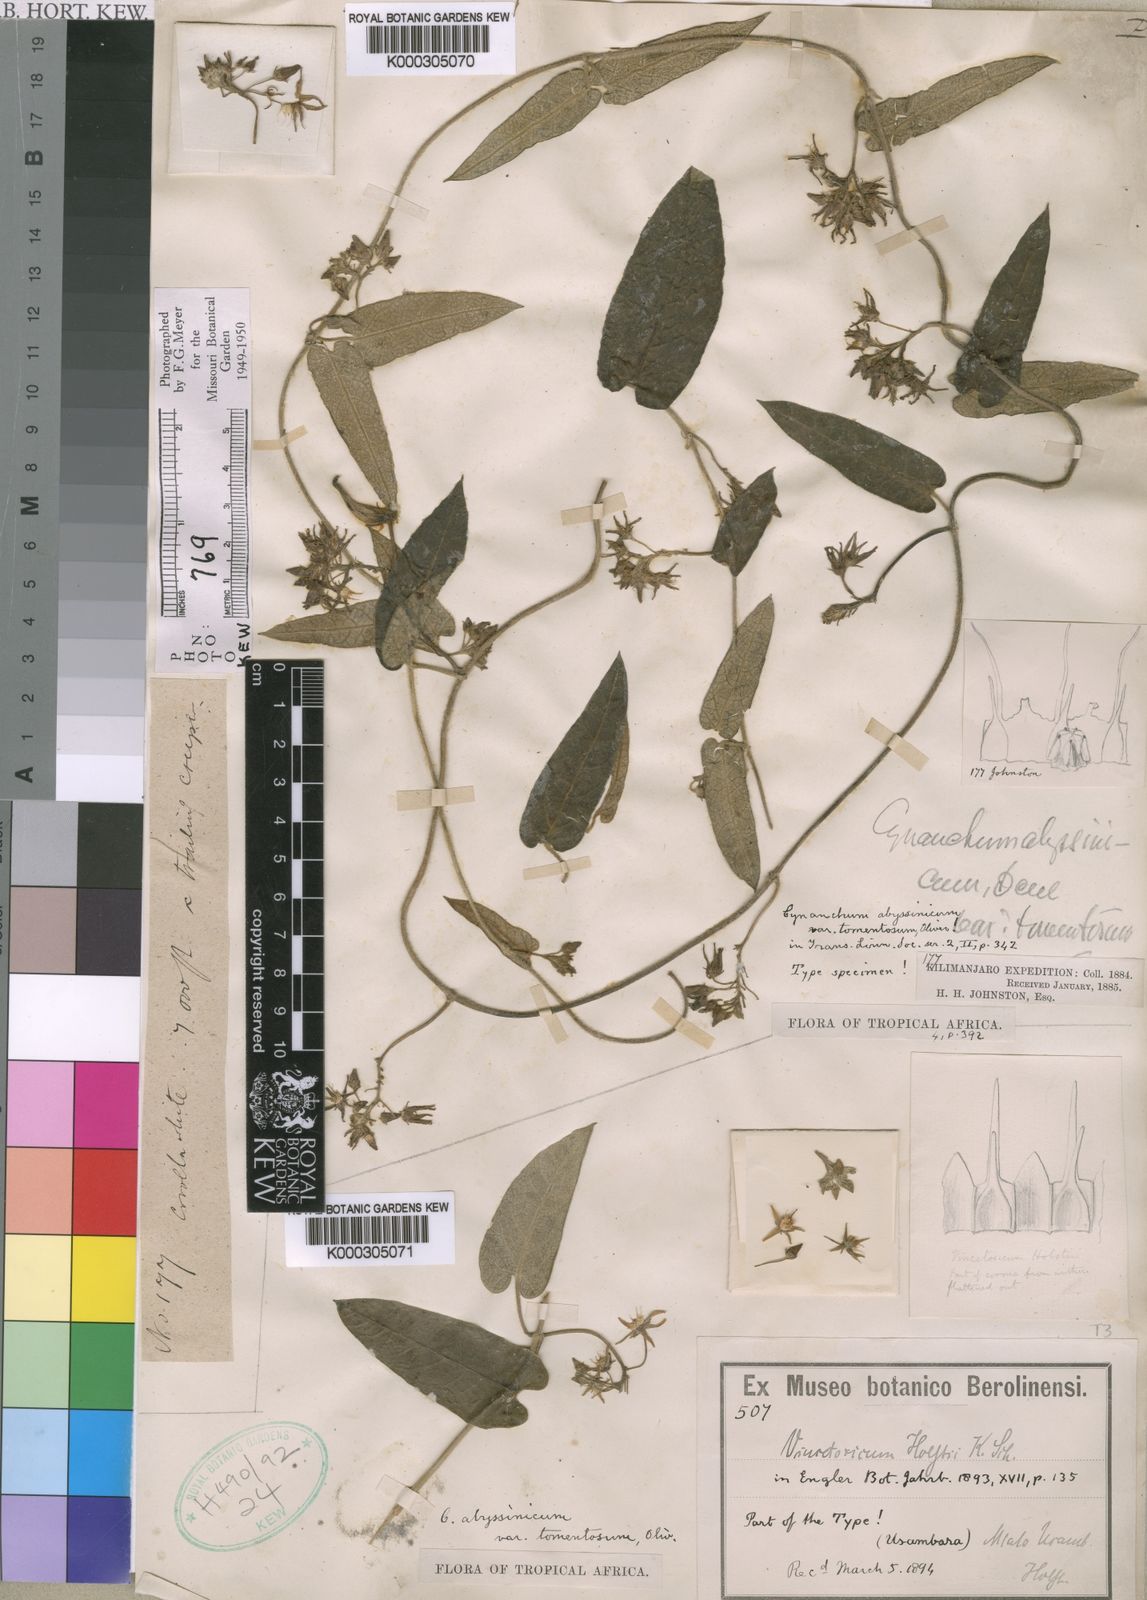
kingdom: Plantae
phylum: Tracheophyta
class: Magnoliopsida
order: Gentianales
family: Apocynaceae
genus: Cynanchum
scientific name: Cynanchum abyssinicum
